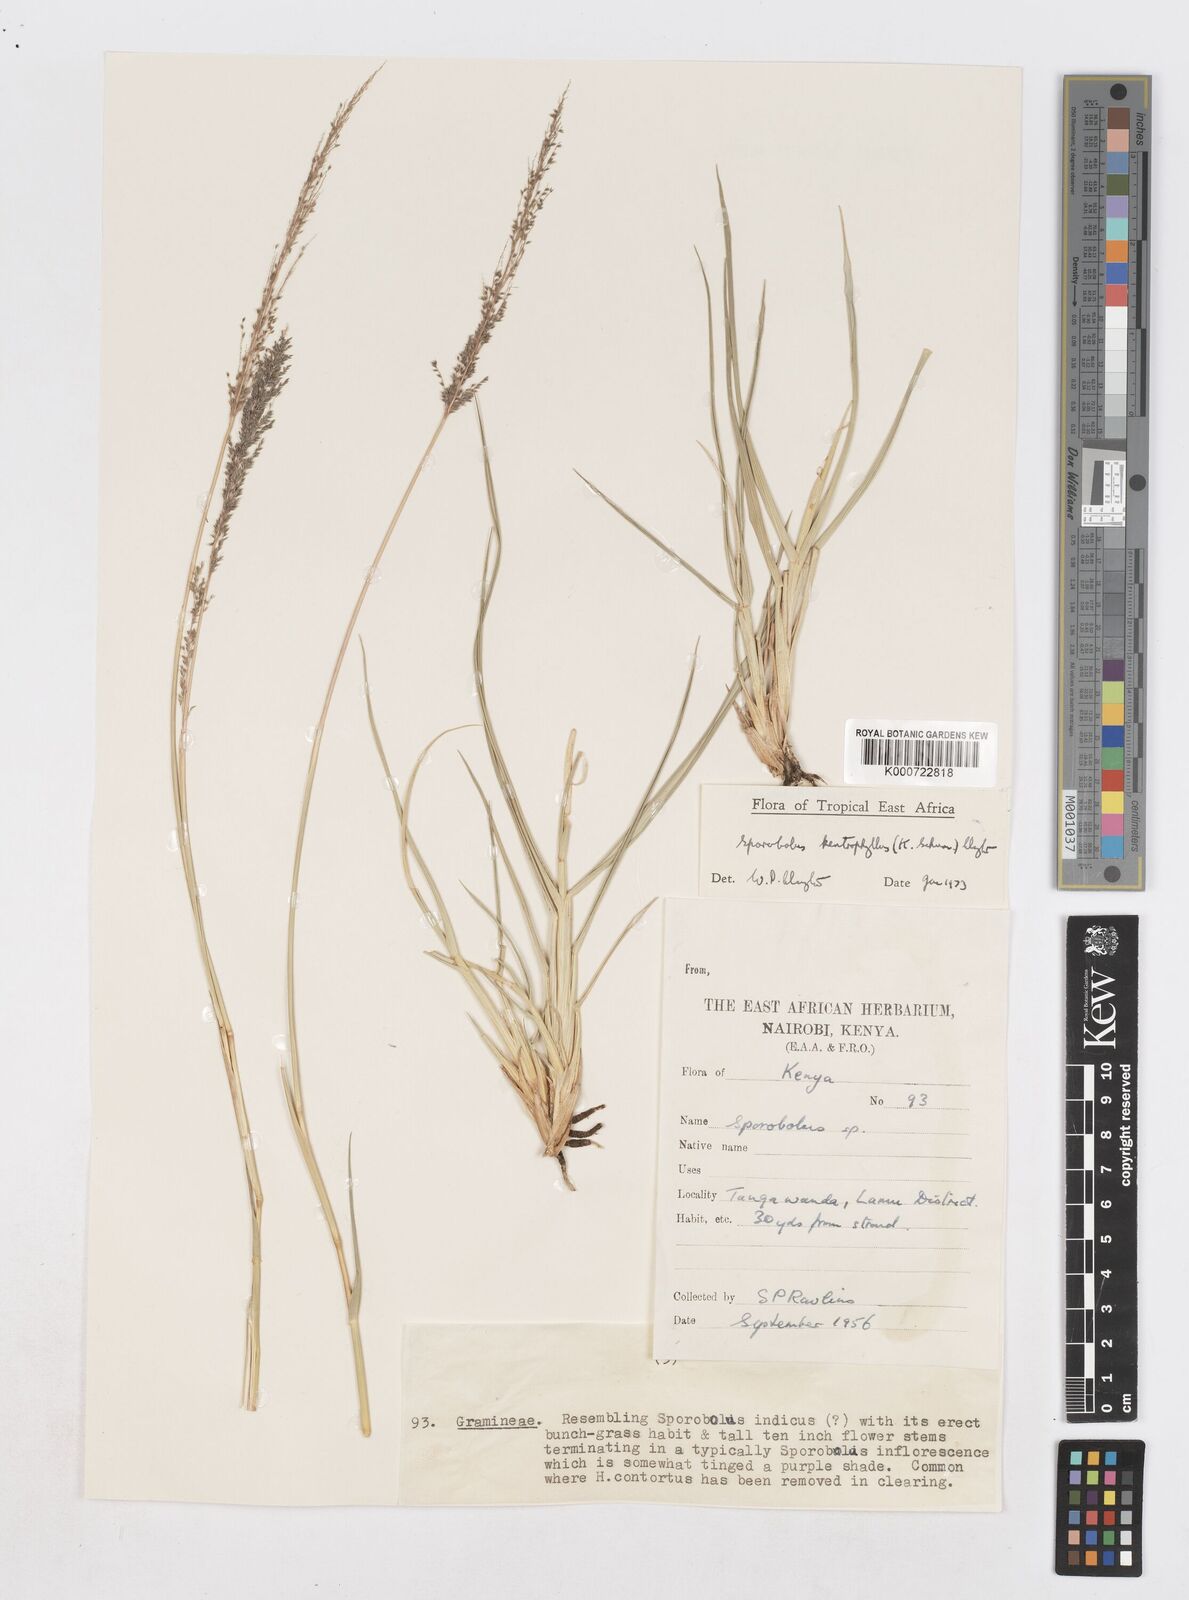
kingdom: Plantae
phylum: Tracheophyta
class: Liliopsida
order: Poales
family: Poaceae
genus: Sporobolus
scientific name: Sporobolus ioclados
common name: Pan dropseed
